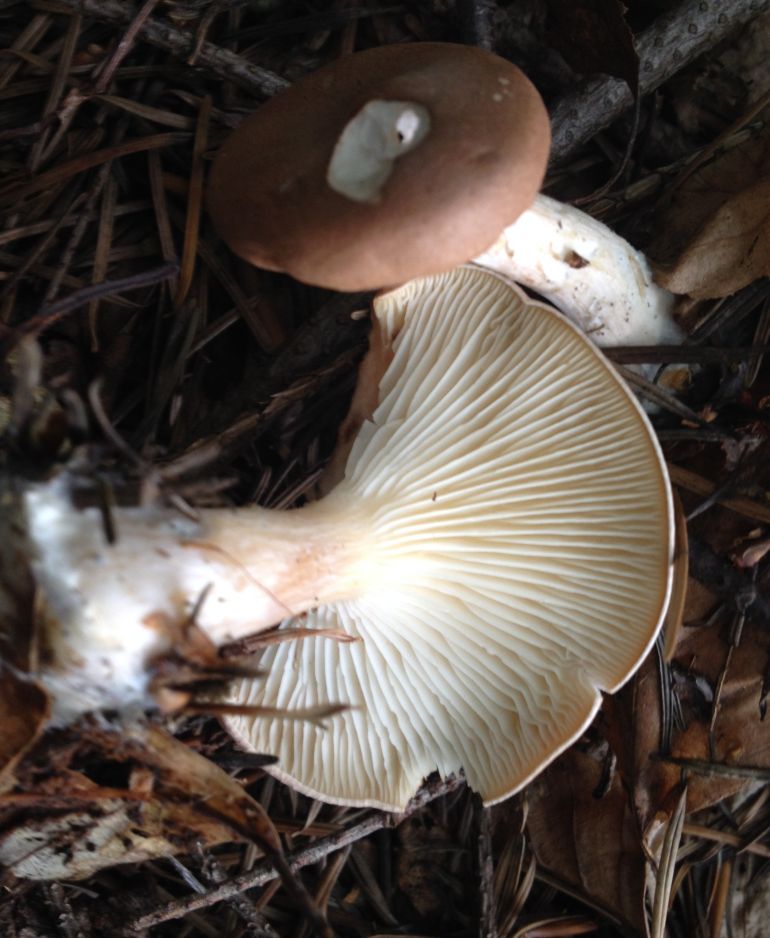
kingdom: Fungi
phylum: Basidiomycota
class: Agaricomycetes
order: Agaricales
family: Tricholomataceae
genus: Infundibulicybe
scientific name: Infundibulicybe gibba
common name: almindelig tragthat
